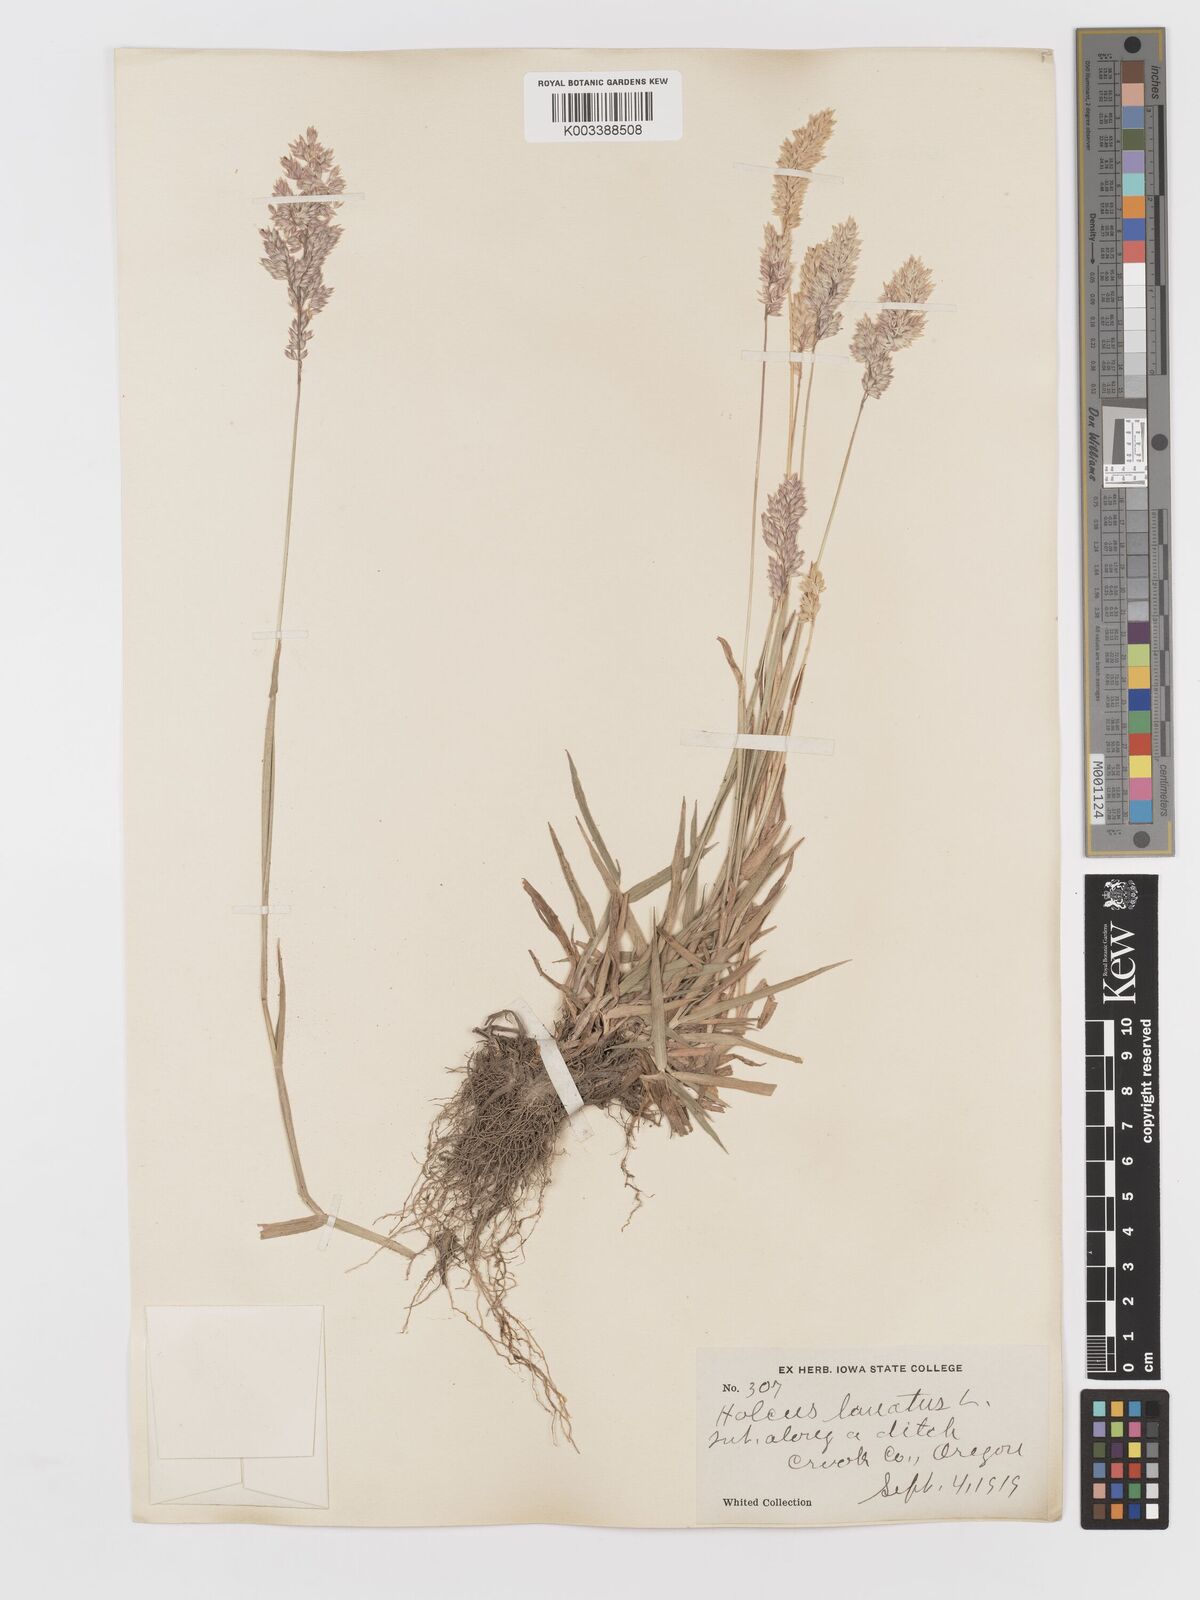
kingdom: Plantae
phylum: Tracheophyta
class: Liliopsida
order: Poales
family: Poaceae
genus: Holcus
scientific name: Holcus lanatus
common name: Yorkshire-fog
